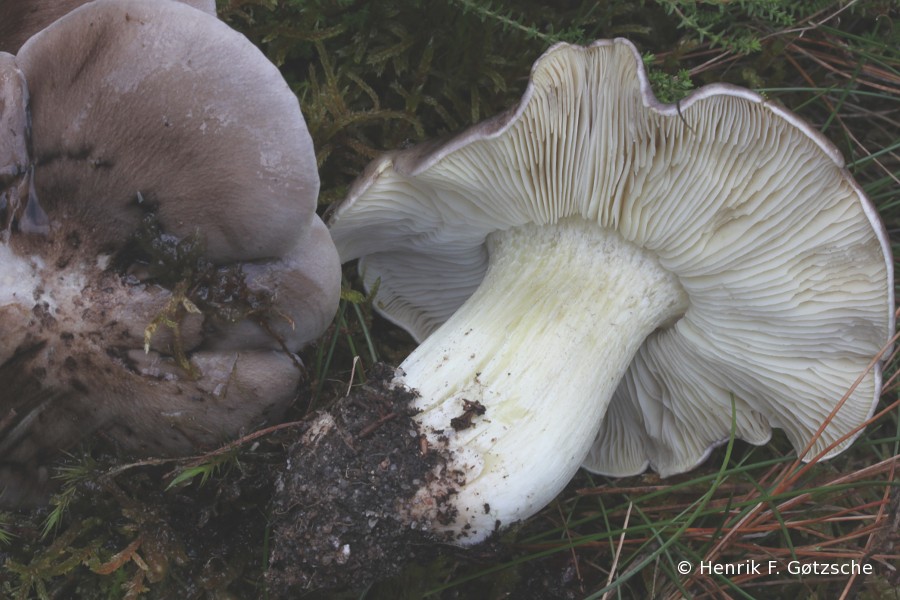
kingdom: Fungi
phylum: Basidiomycota
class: Agaricomycetes
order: Agaricales
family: Tricholomataceae
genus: Tricholoma
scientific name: Tricholoma portentosum
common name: grå ridderhat
